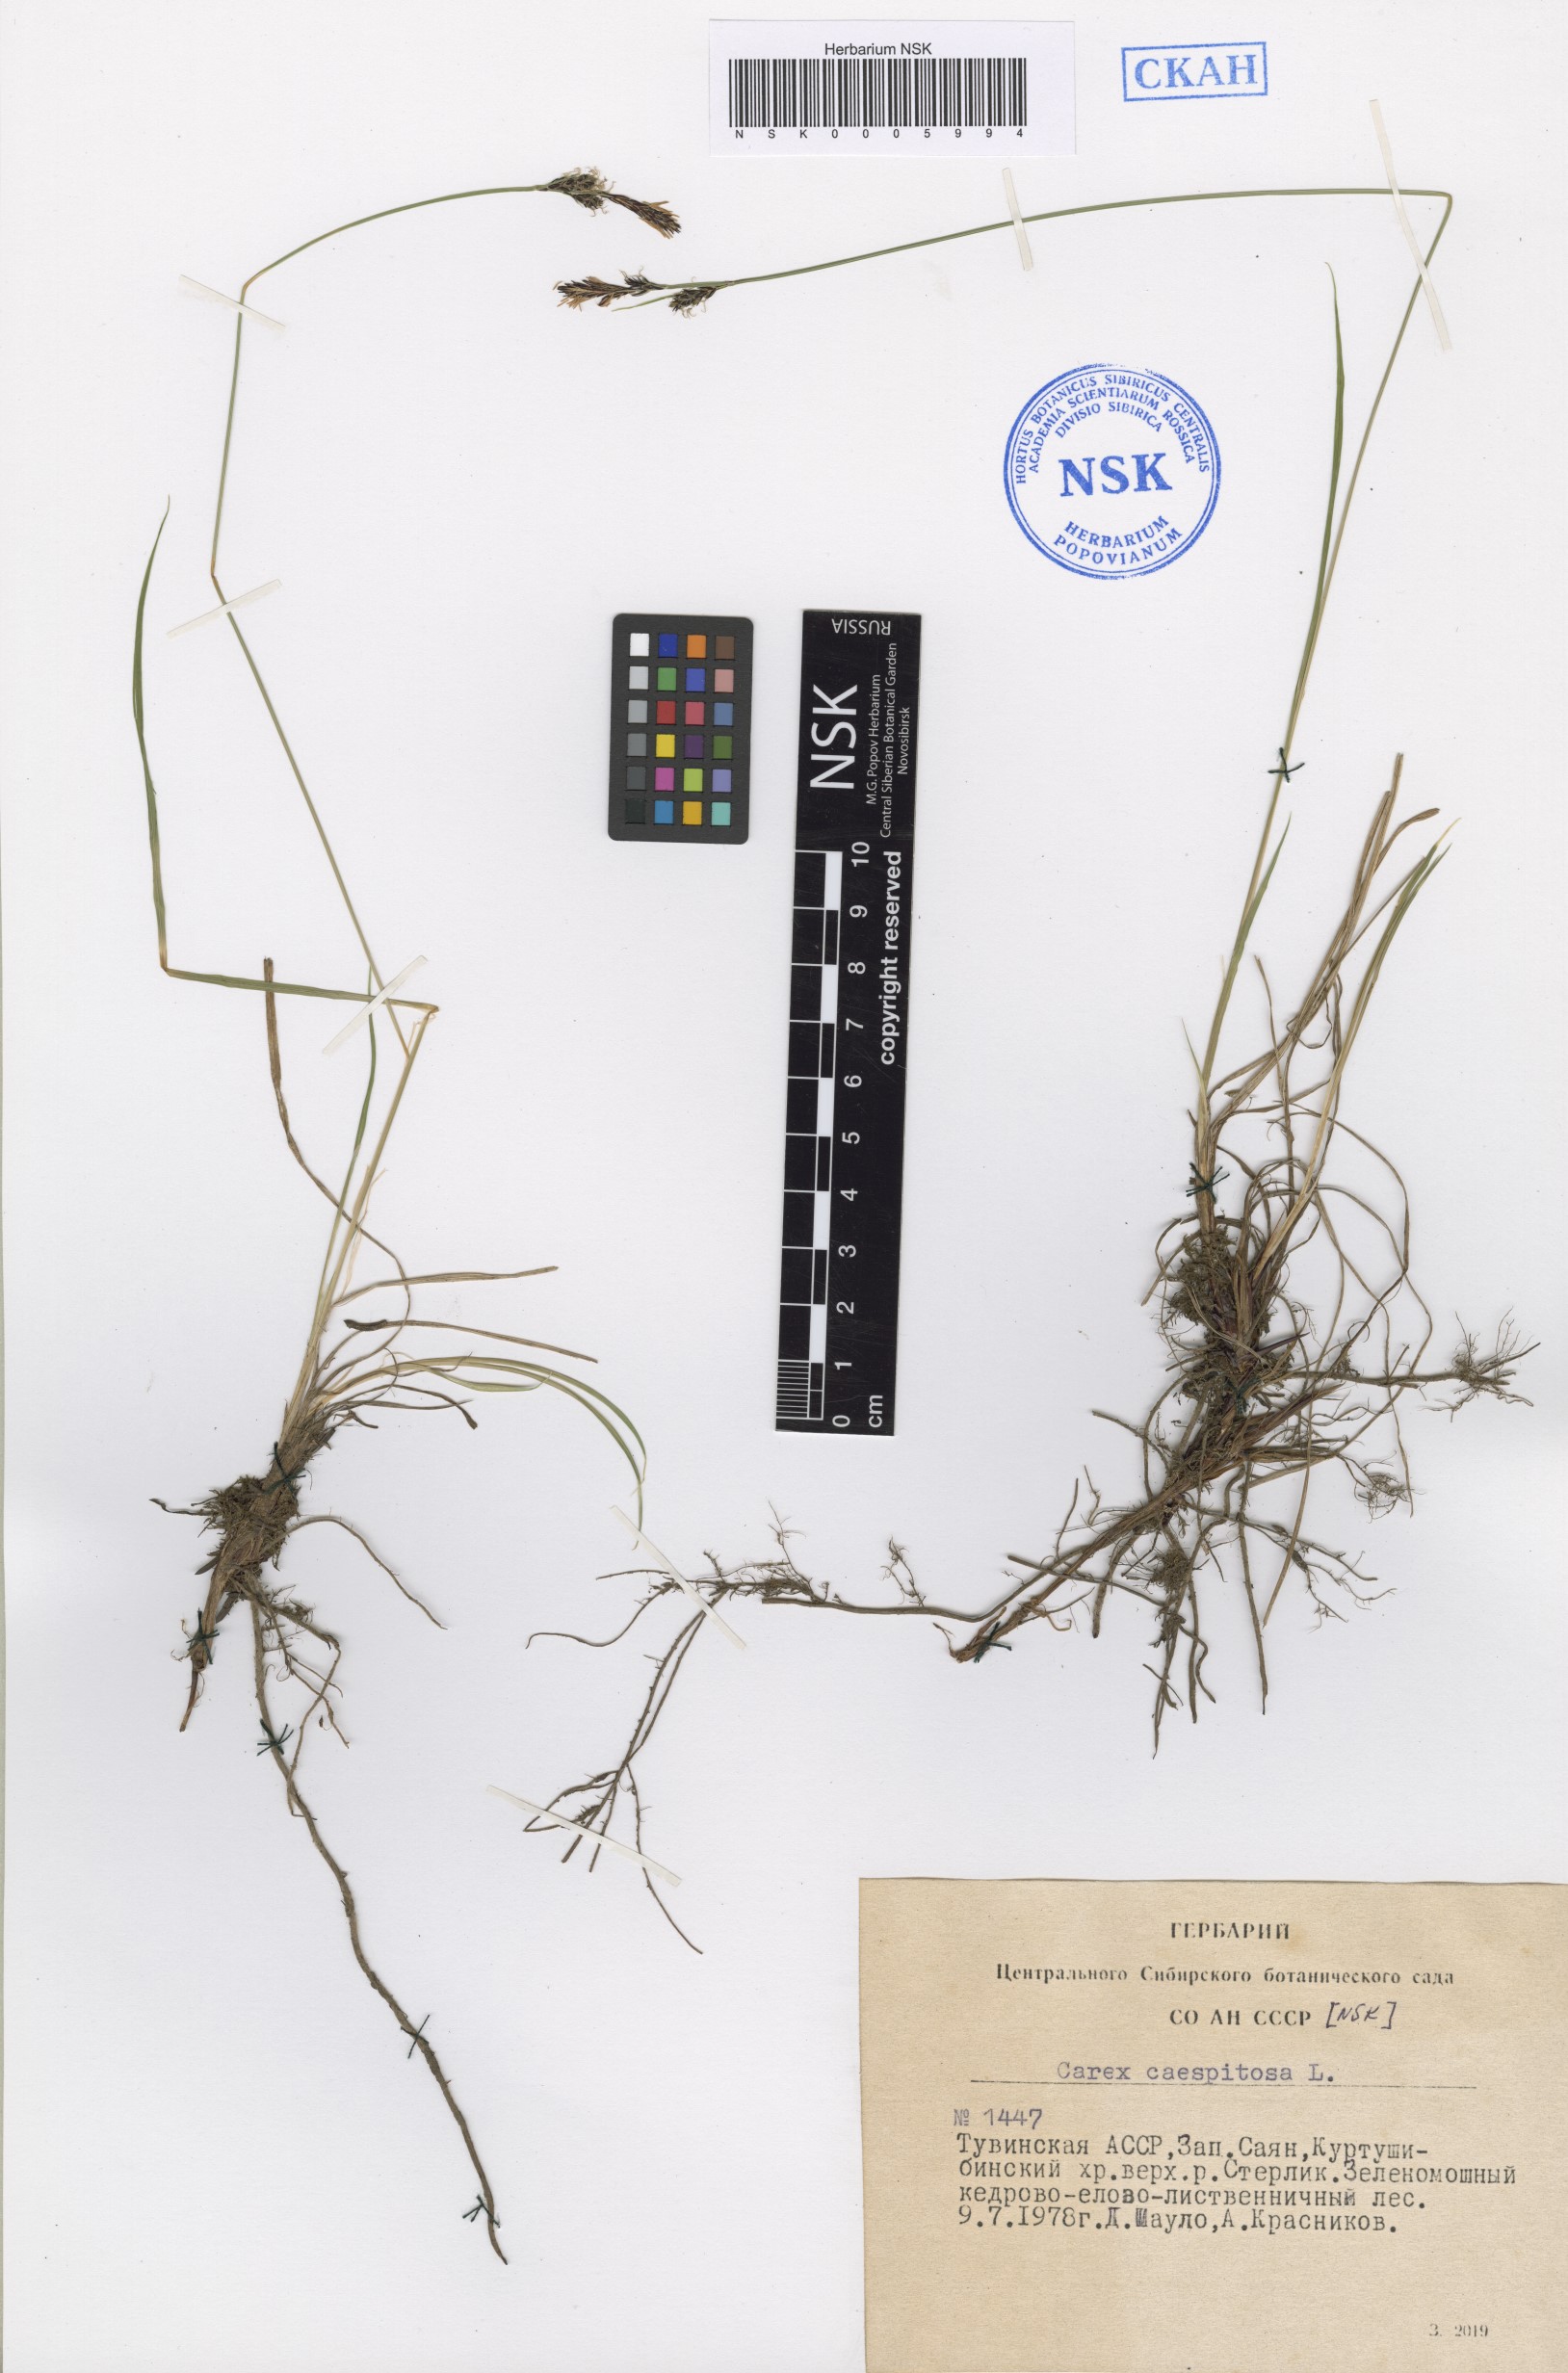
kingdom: Plantae
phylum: Tracheophyta
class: Liliopsida
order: Poales
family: Cyperaceae
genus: Carex
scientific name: Carex cespitosa
